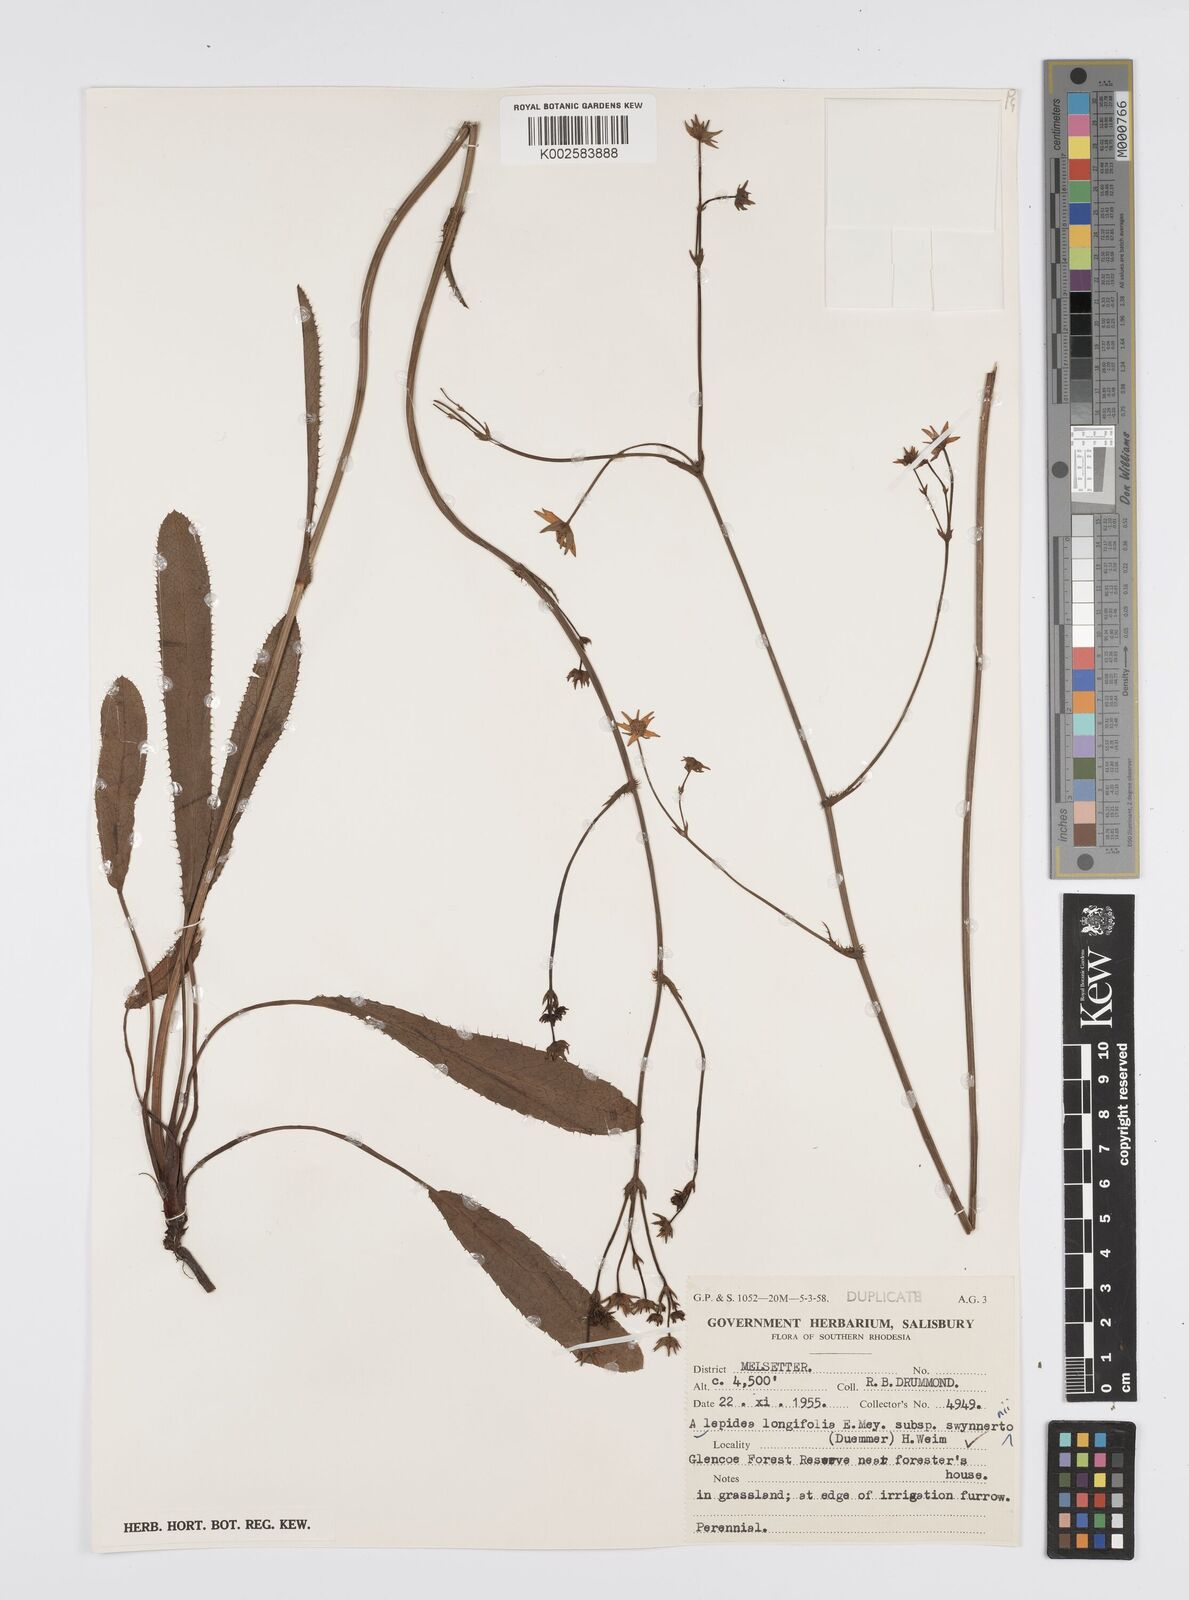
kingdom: Plantae
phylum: Tracheophyta
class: Magnoliopsida
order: Apiales
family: Apiaceae
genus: Alepidea
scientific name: Alepidea
